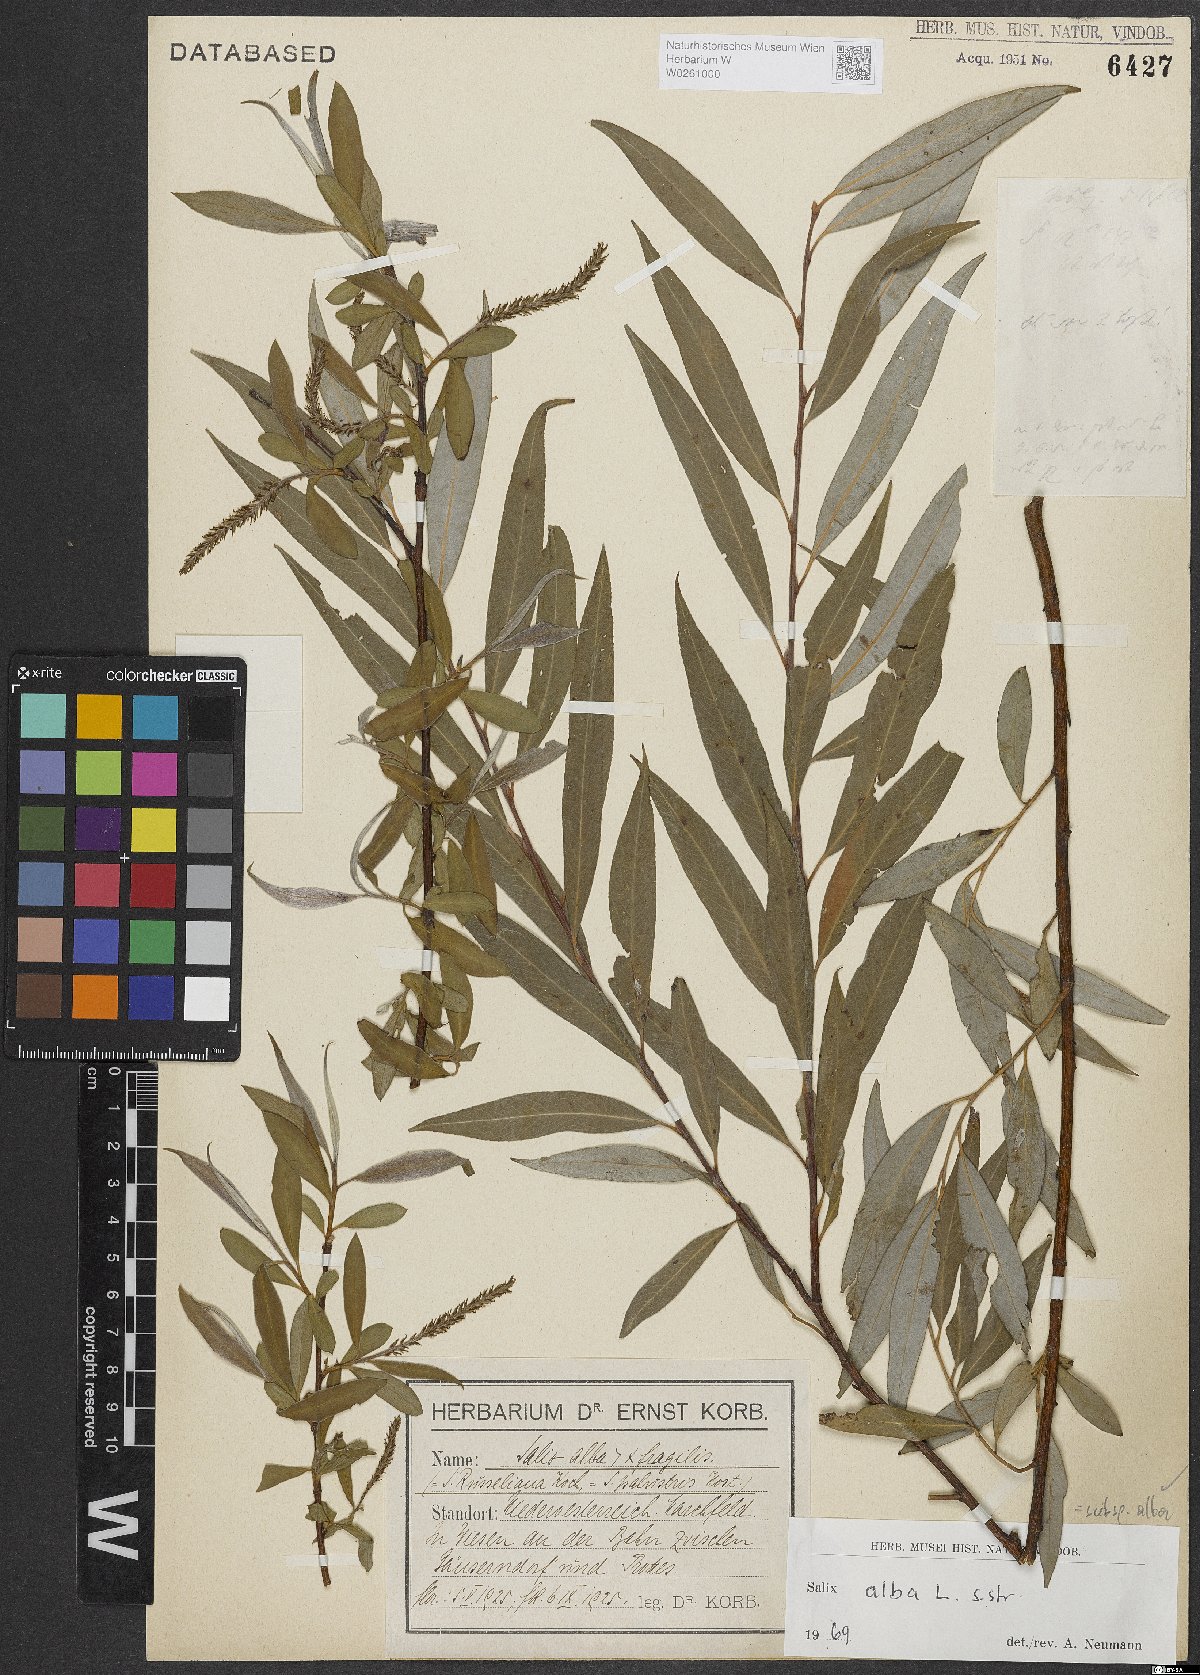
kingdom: Plantae
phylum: Tracheophyta
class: Magnoliopsida
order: Malpighiales
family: Salicaceae
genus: Salix
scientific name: Salix alba
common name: White willow
